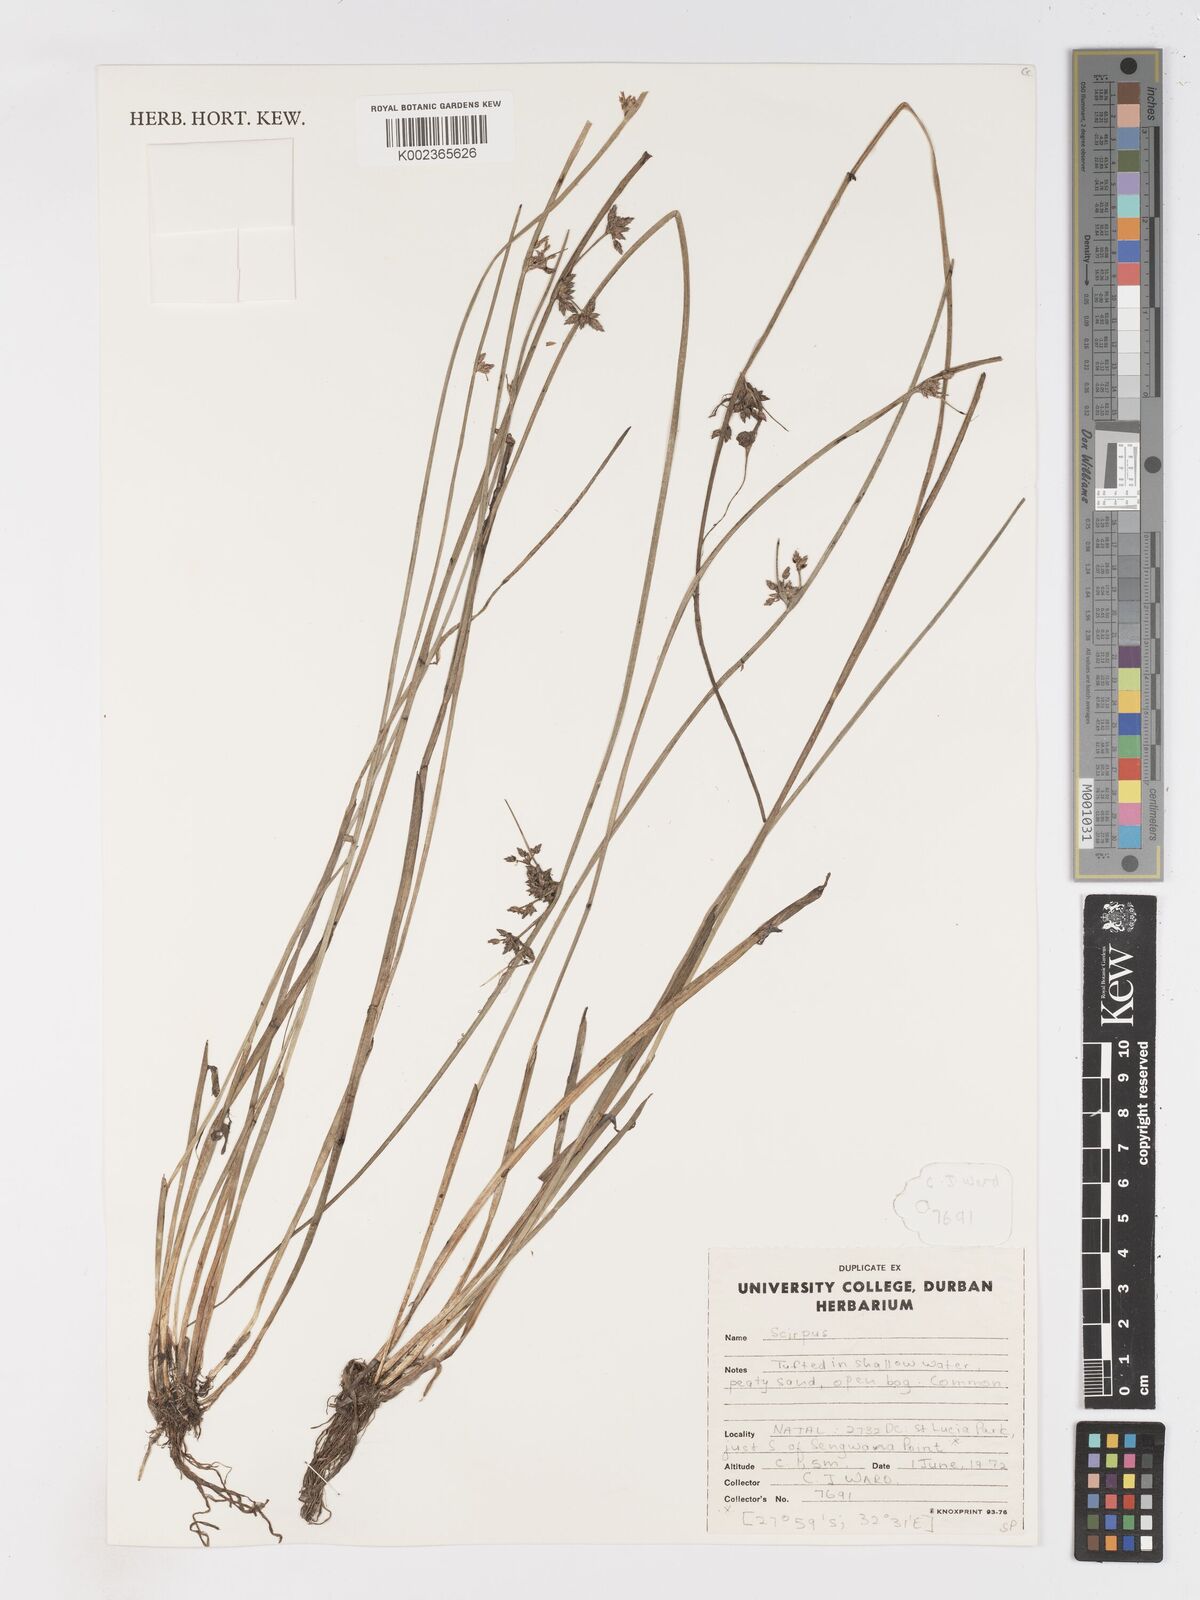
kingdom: Plantae
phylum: Tracheophyta
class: Liliopsida
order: Poales
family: Cyperaceae
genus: Schoenoplectus
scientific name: Schoenoplectus
